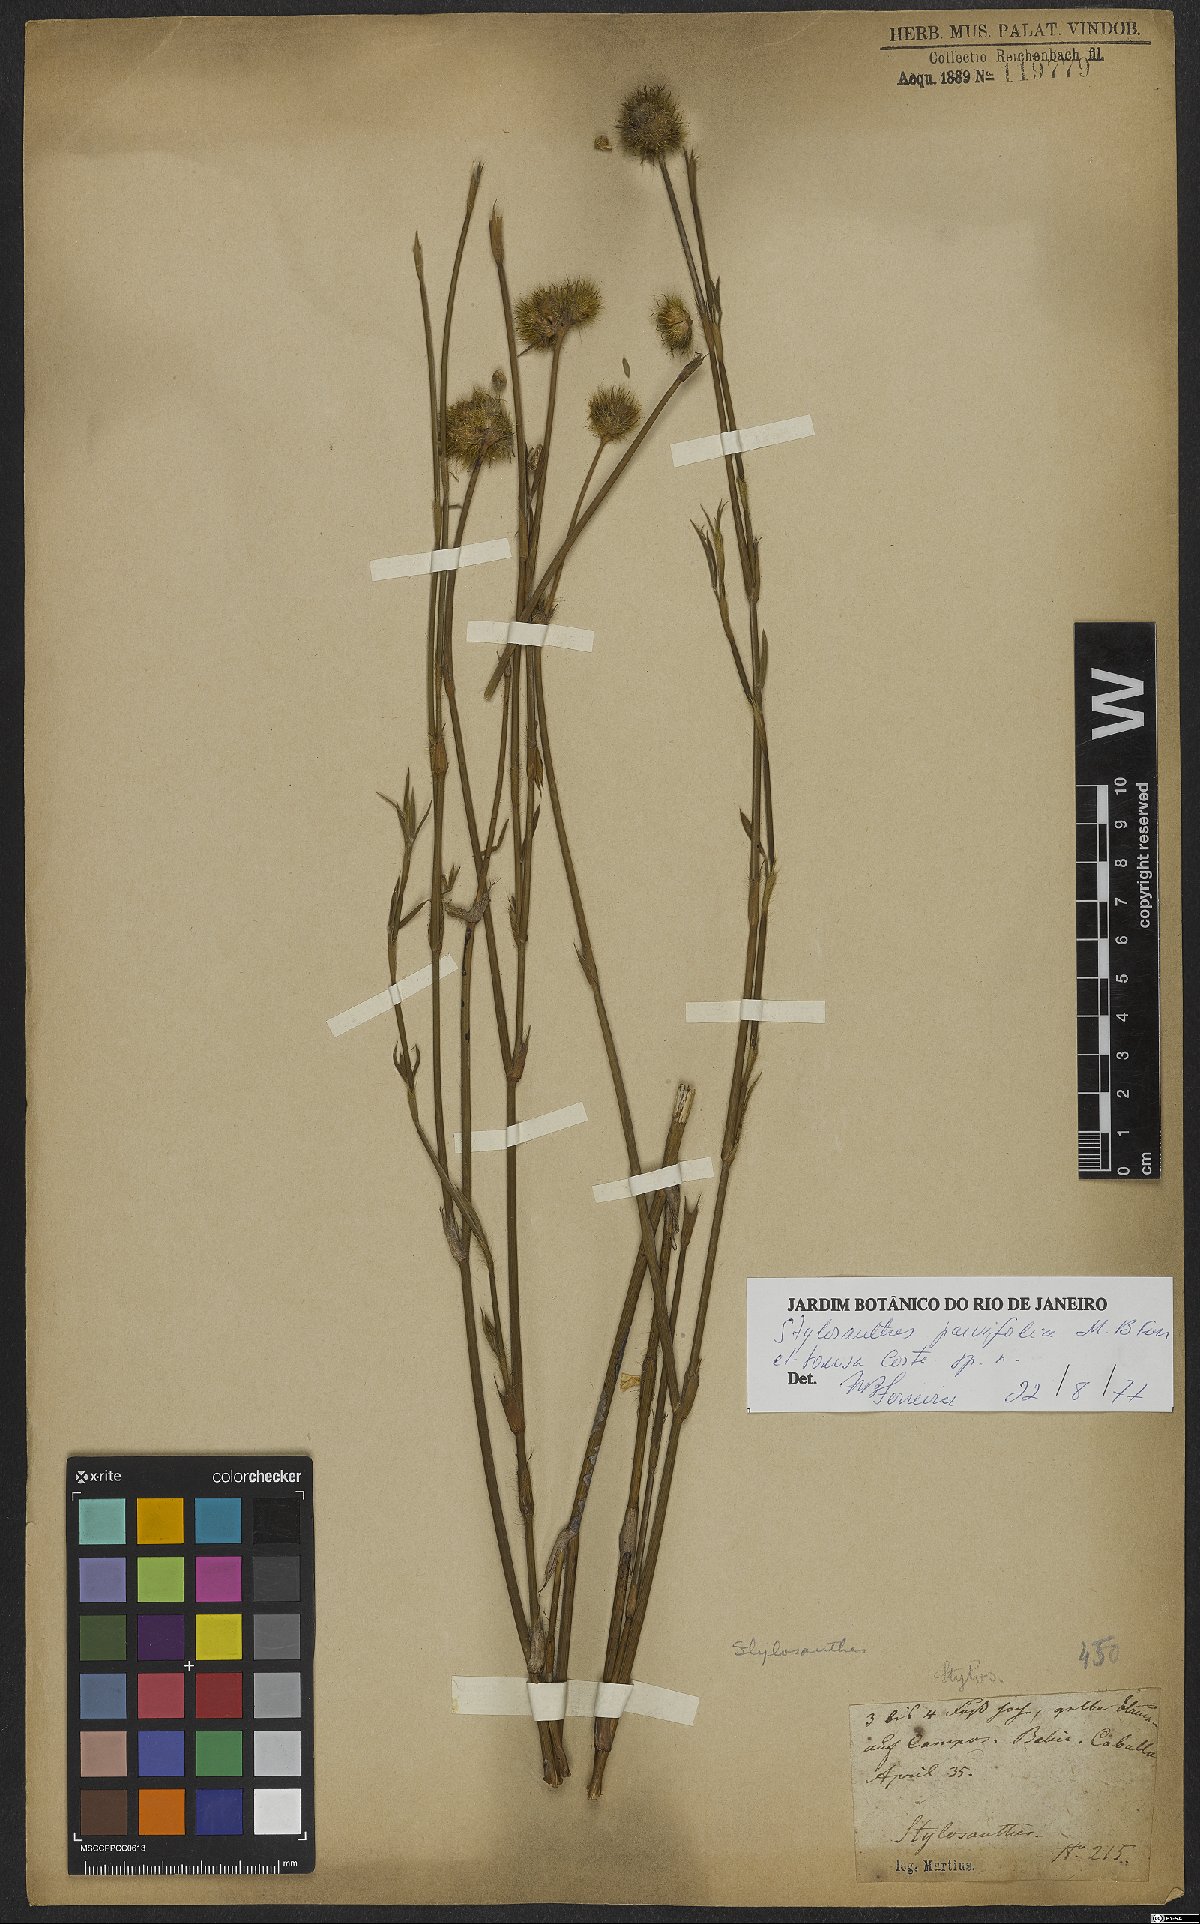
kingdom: Plantae
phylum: Tracheophyta
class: Magnoliopsida
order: Fabales
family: Fabaceae
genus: Stylosanthes
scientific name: Stylosanthes
